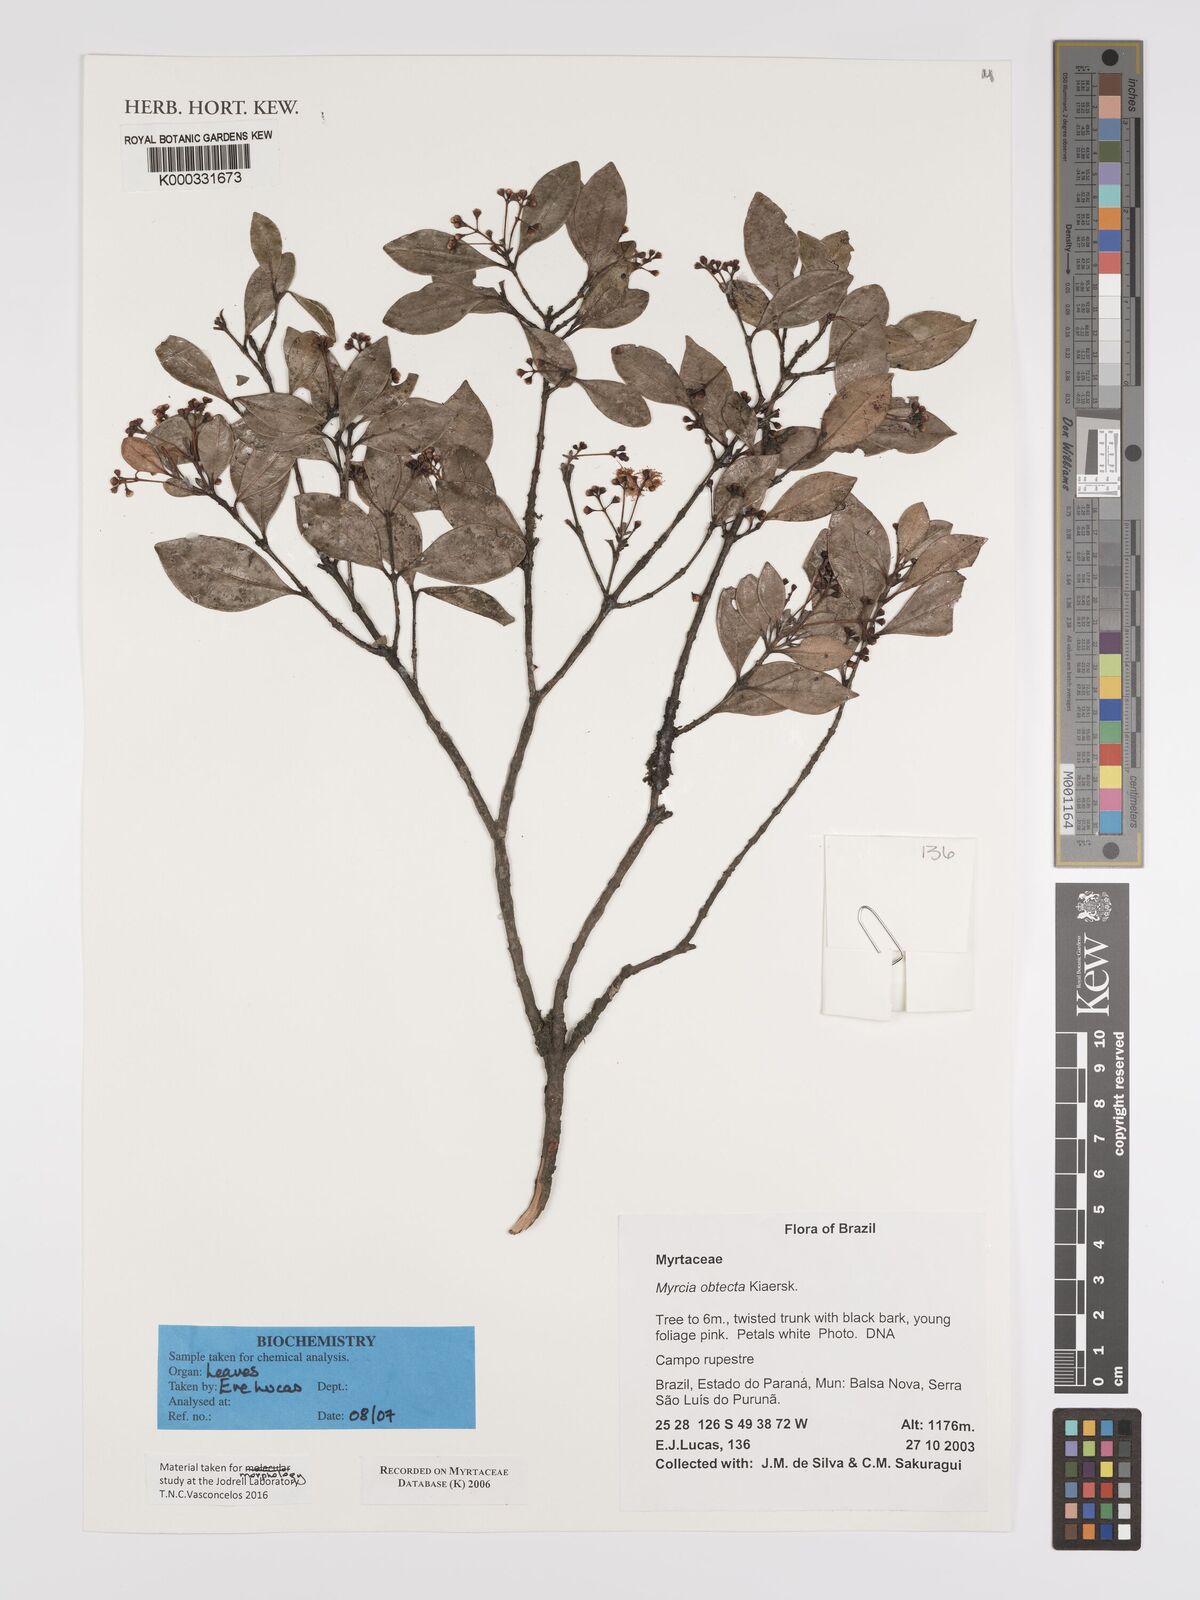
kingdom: Plantae
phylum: Tracheophyta
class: Magnoliopsida
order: Myrtales
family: Myrtaceae
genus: Myrcia
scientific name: Myrcia guianensis
